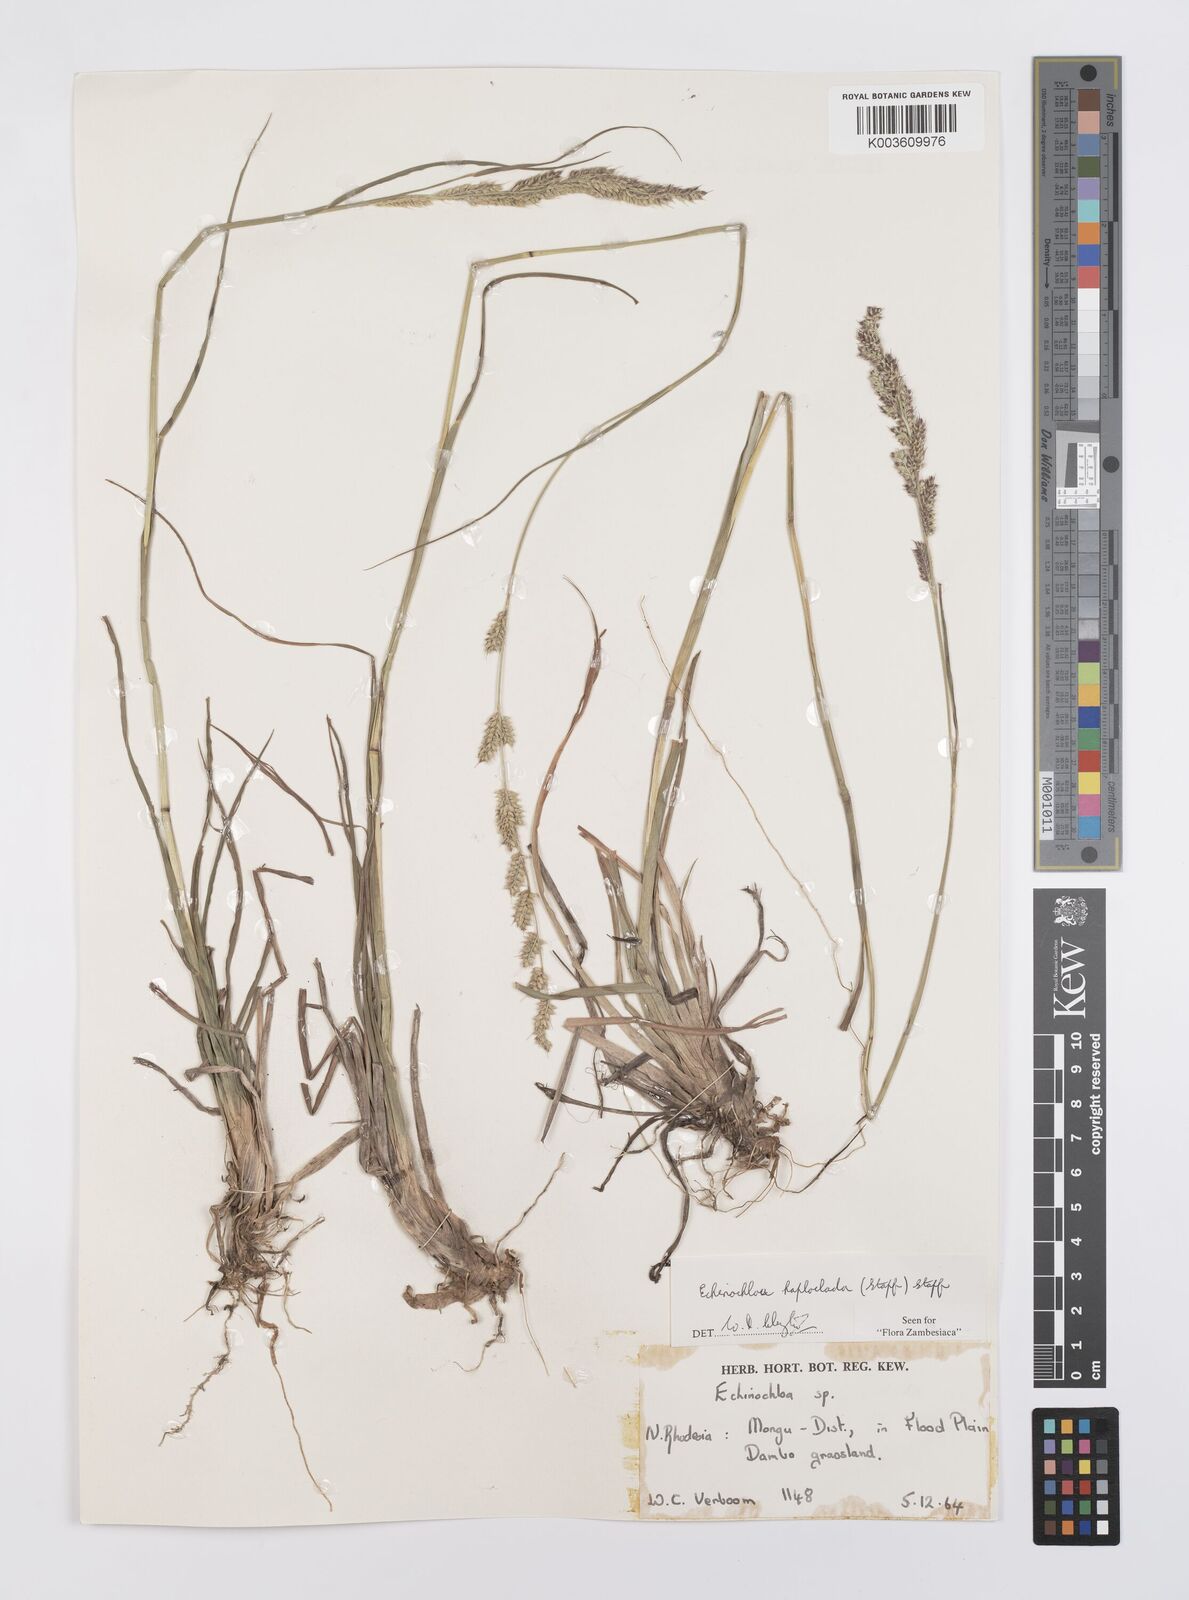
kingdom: Plantae
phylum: Tracheophyta
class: Liliopsida
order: Poales
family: Poaceae
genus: Echinochloa
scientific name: Echinochloa haploclada
